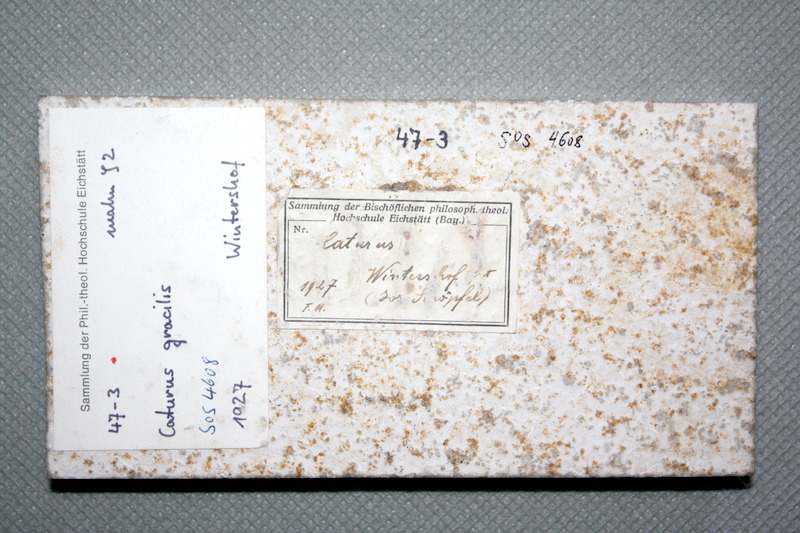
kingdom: Animalia
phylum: Chordata
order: Amiiformes
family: Caturidae
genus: Caturus
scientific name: Caturus furcatus
